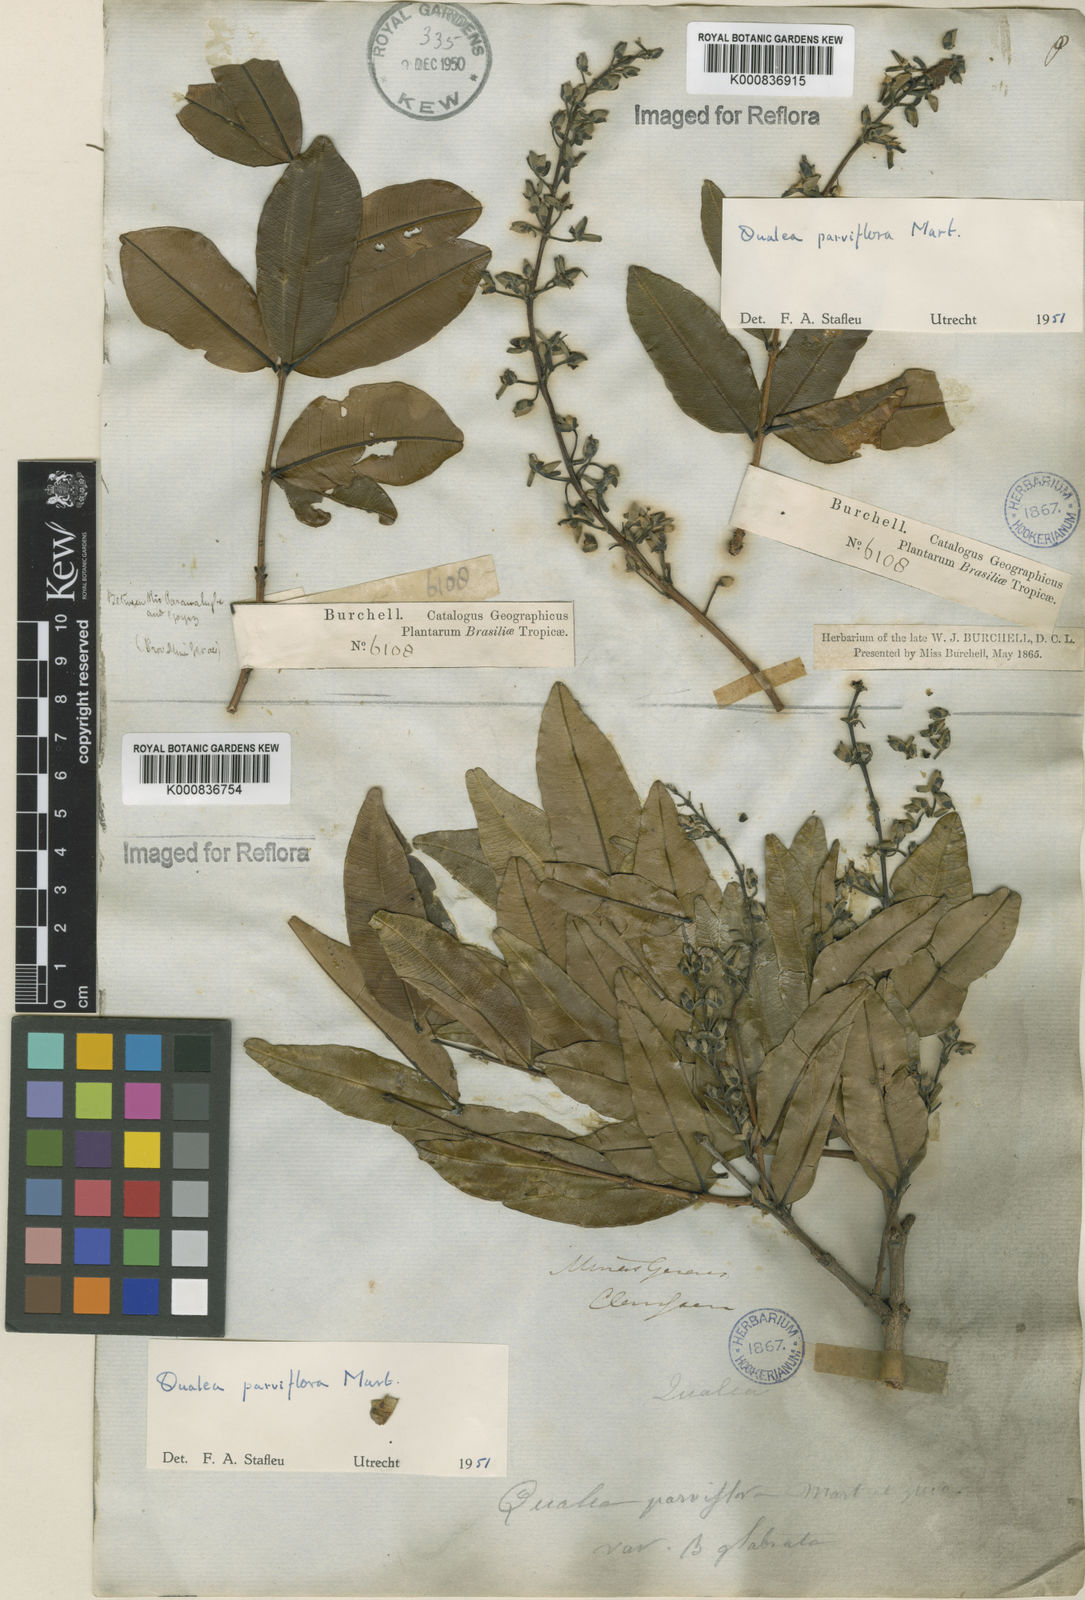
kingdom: Plantae
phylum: Tracheophyta
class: Magnoliopsida
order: Myrtales
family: Vochysiaceae
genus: Qualea
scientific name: Qualea parviflora
